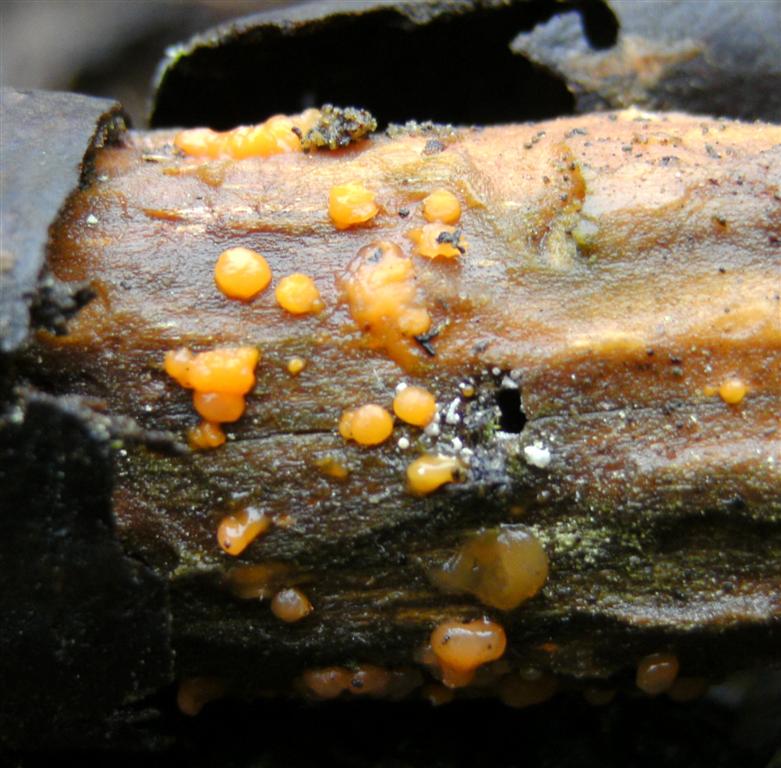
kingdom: Fungi
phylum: Basidiomycota
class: Dacrymycetes
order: Dacrymycetales
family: Dacrymycetaceae
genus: Dacrymyces
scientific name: Dacrymyces stillatus
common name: almindelig tåresvamp
